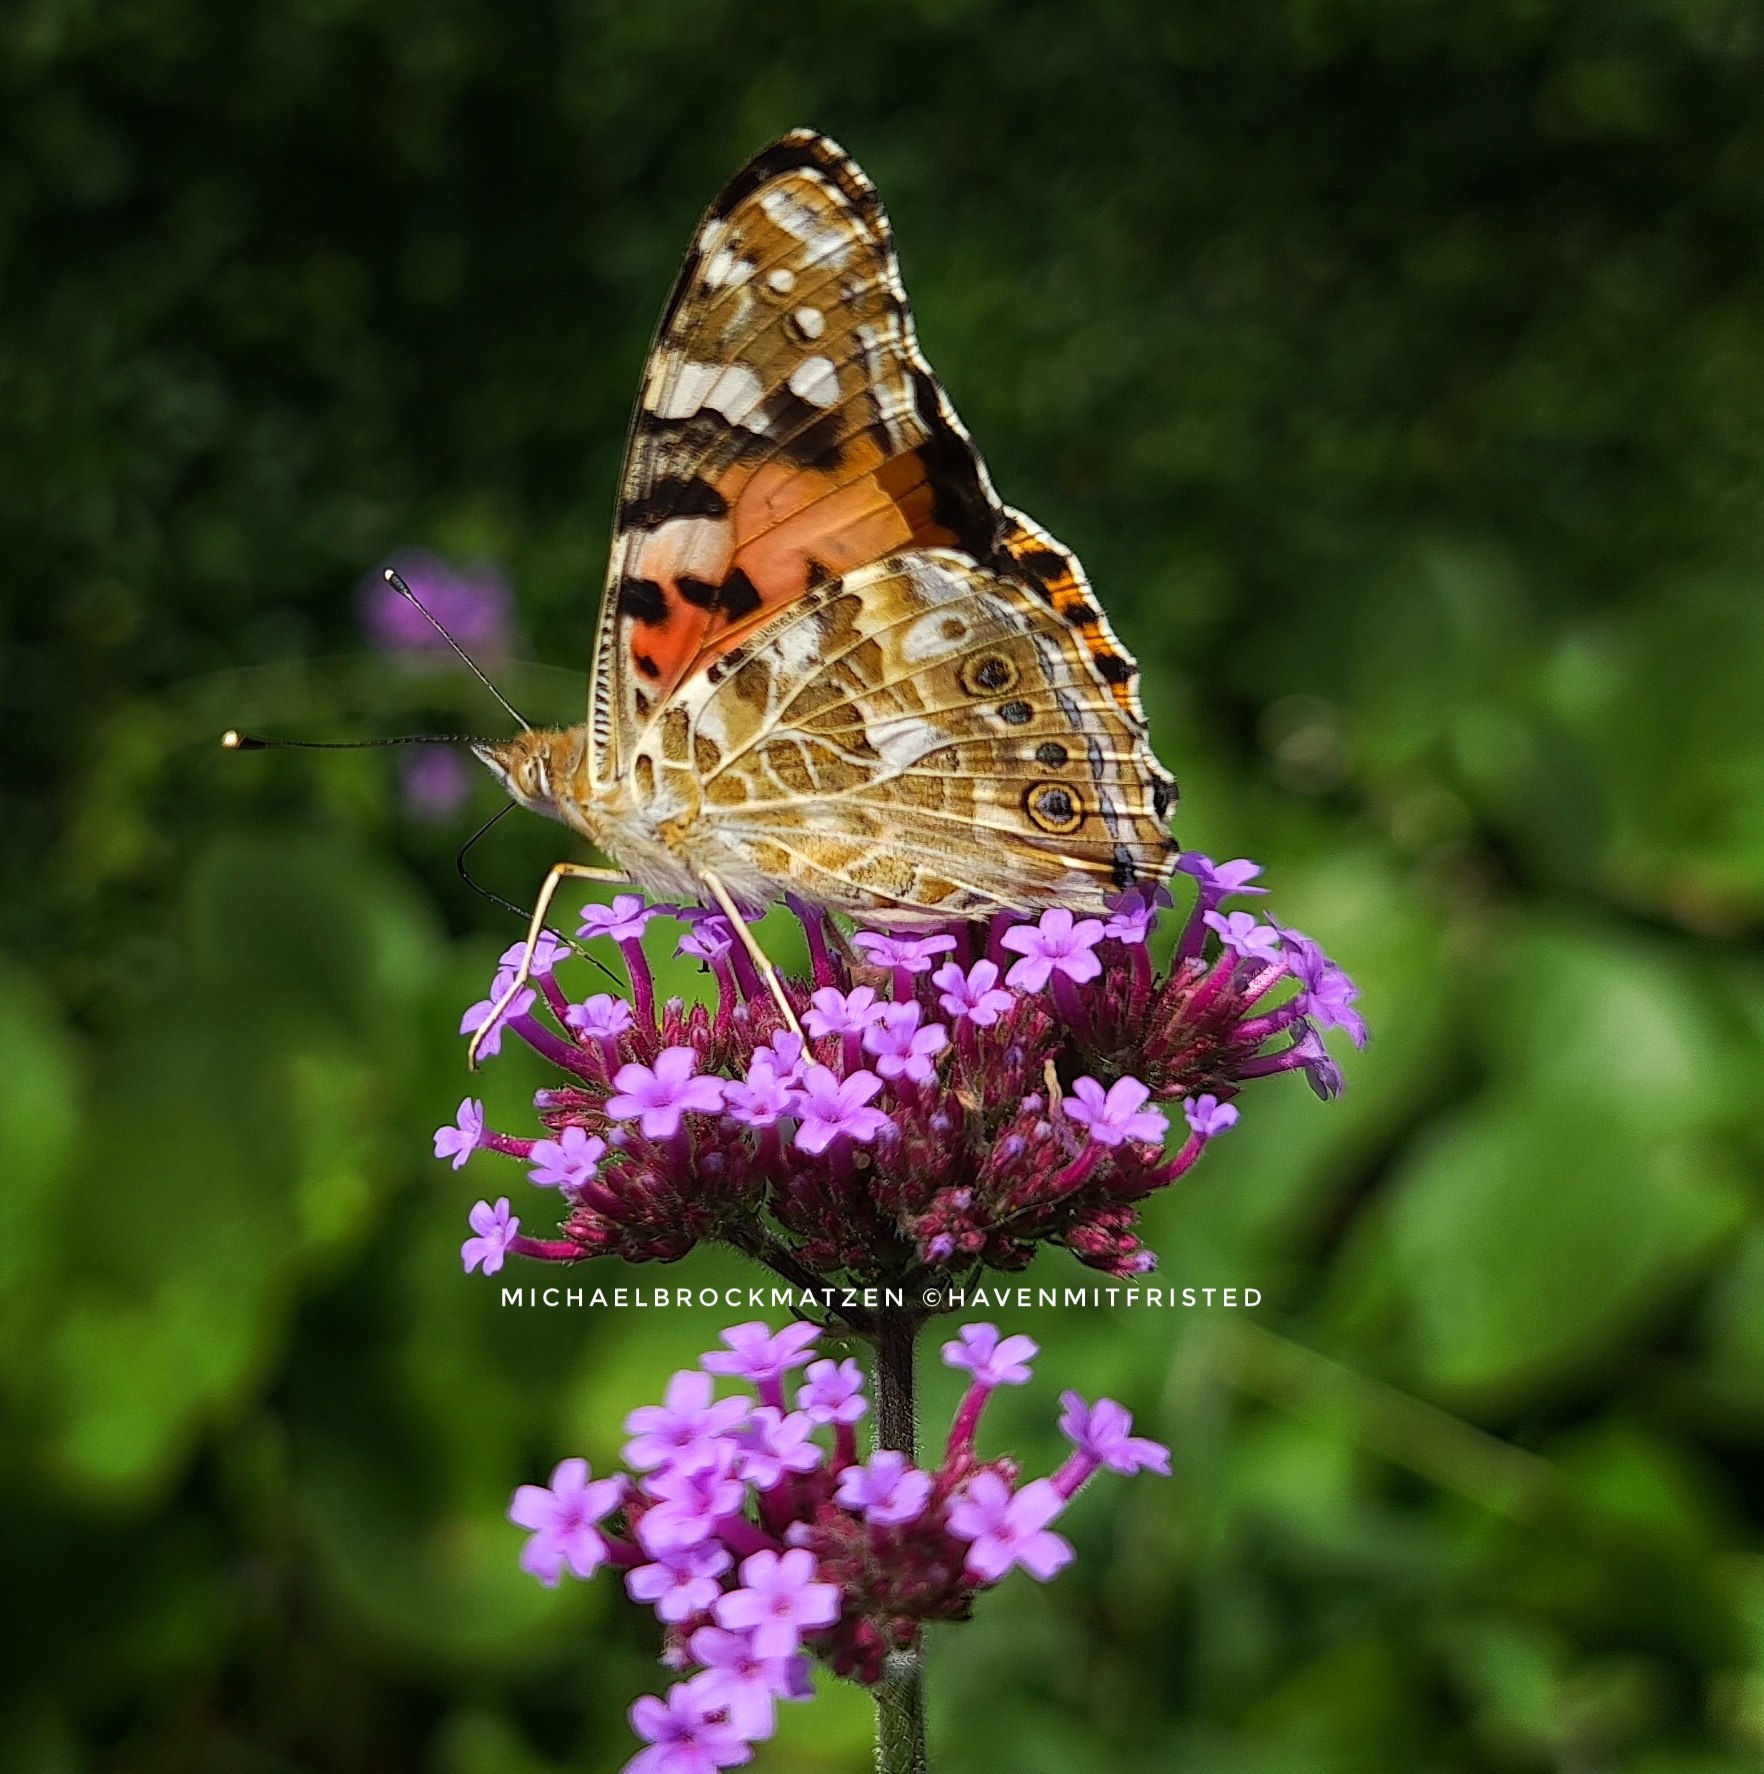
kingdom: Animalia
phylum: Arthropoda
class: Insecta
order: Lepidoptera
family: Nymphalidae
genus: Vanessa
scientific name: Vanessa cardui
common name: Tidselsommerfugl
